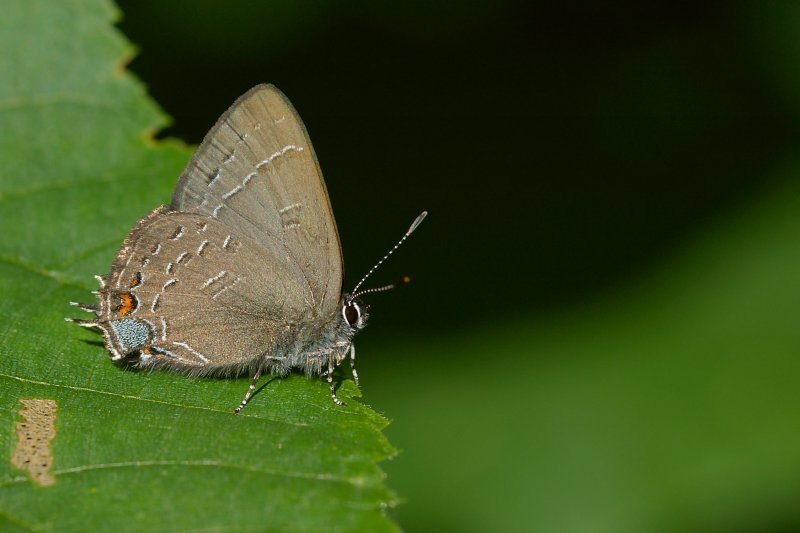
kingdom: Animalia
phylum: Arthropoda
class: Insecta
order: Lepidoptera
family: Lycaenidae
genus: Satyrium
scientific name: Satyrium calanus
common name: Banded Hairstreak
